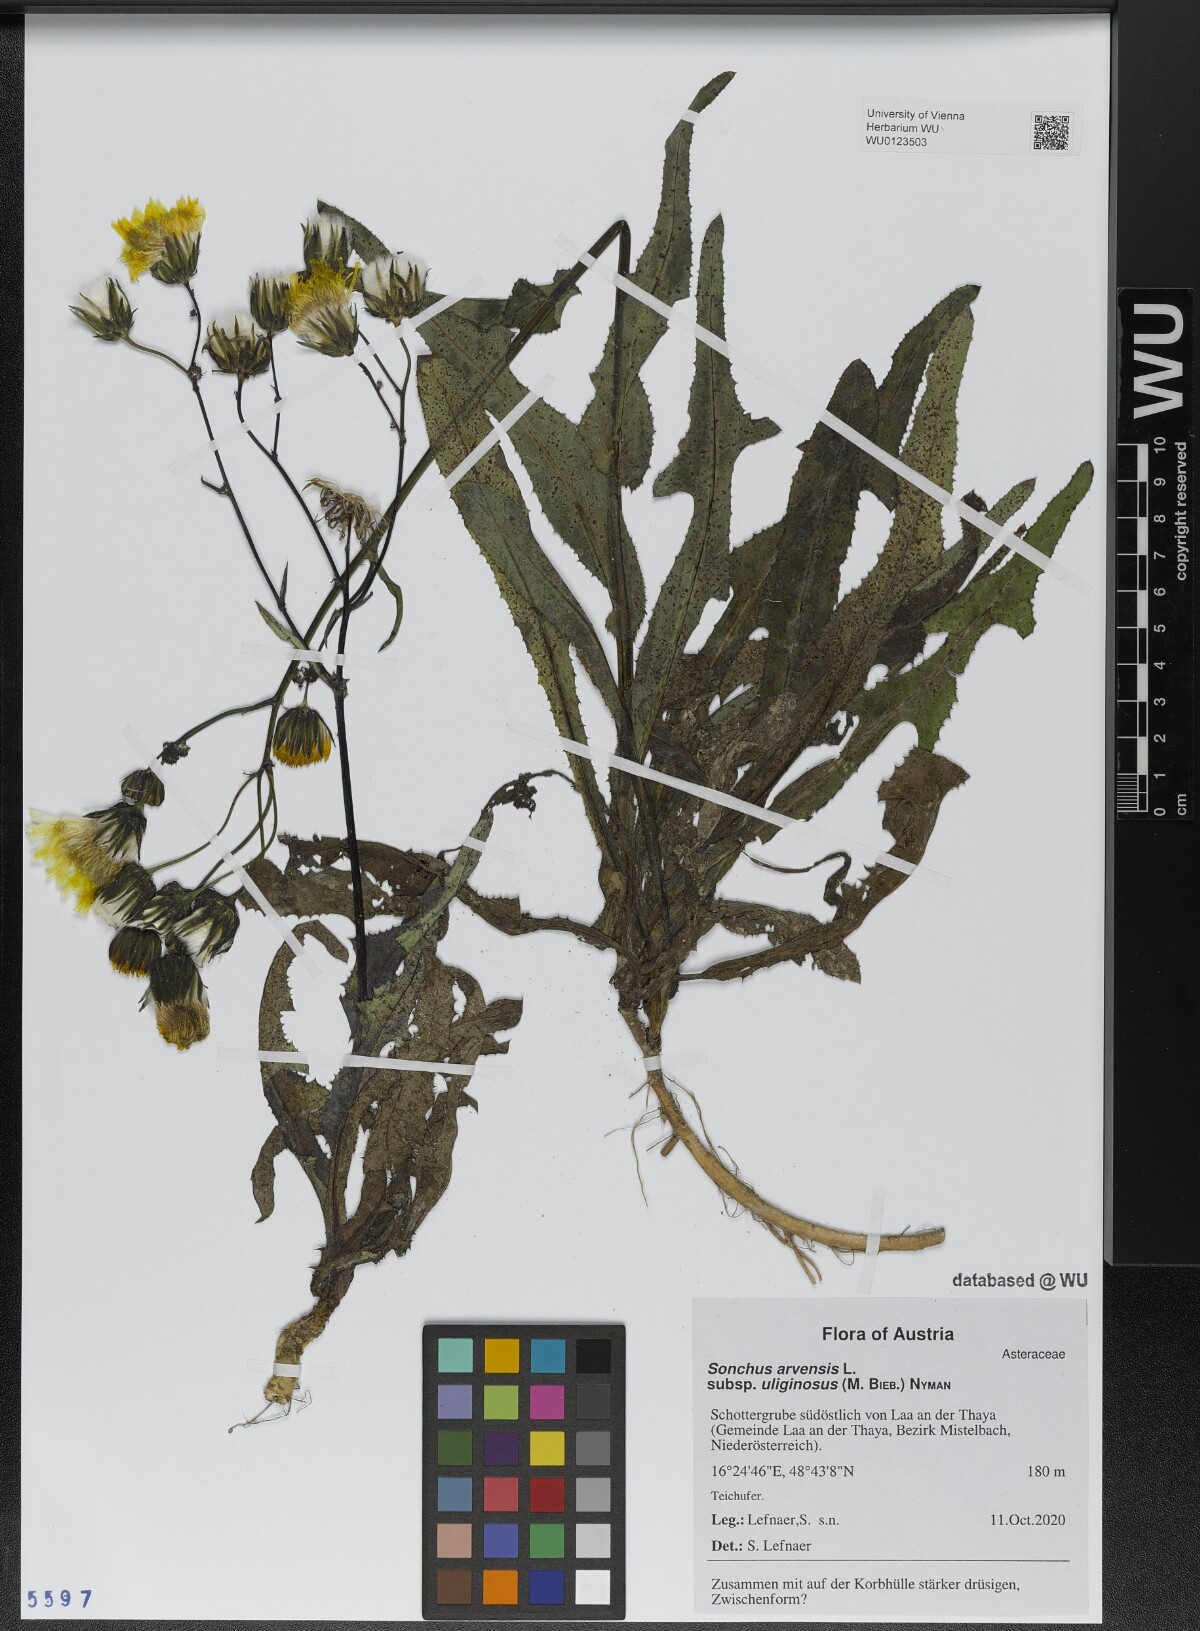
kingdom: Plantae
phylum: Tracheophyta
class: Magnoliopsida
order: Asterales
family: Asteraceae
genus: Sonchus
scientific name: Sonchus arvensis
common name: Perennial sow-thistle
